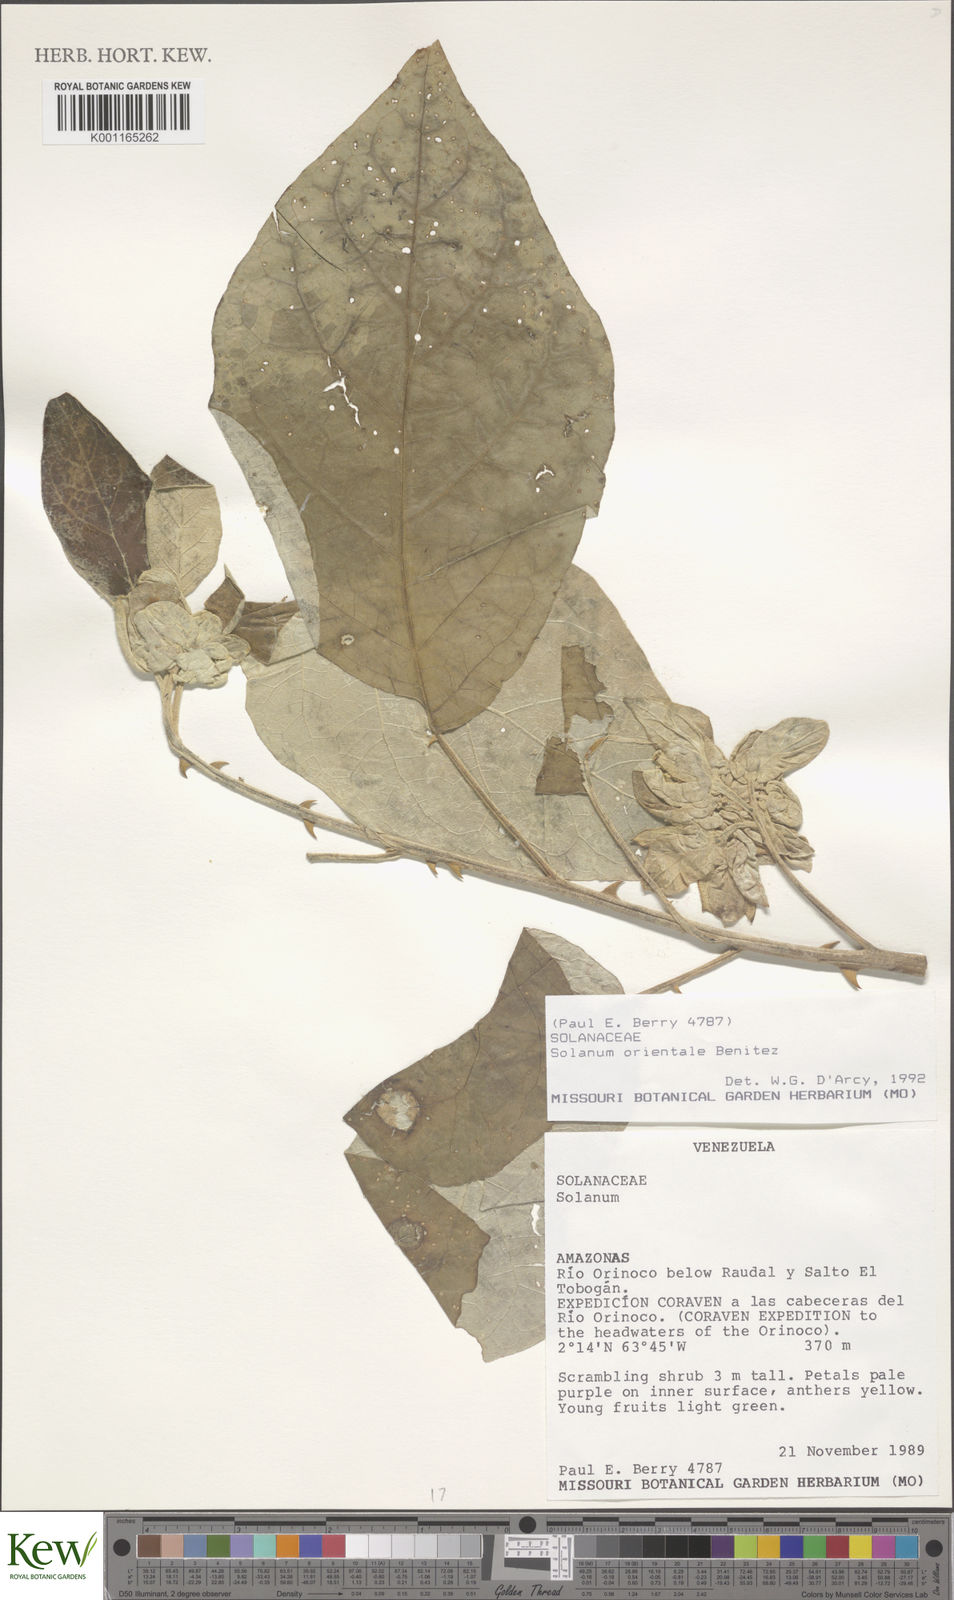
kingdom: Plantae
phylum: Tracheophyta
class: Magnoliopsida
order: Solanales
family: Solanaceae
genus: Solanum
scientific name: Solanum oocarpum
